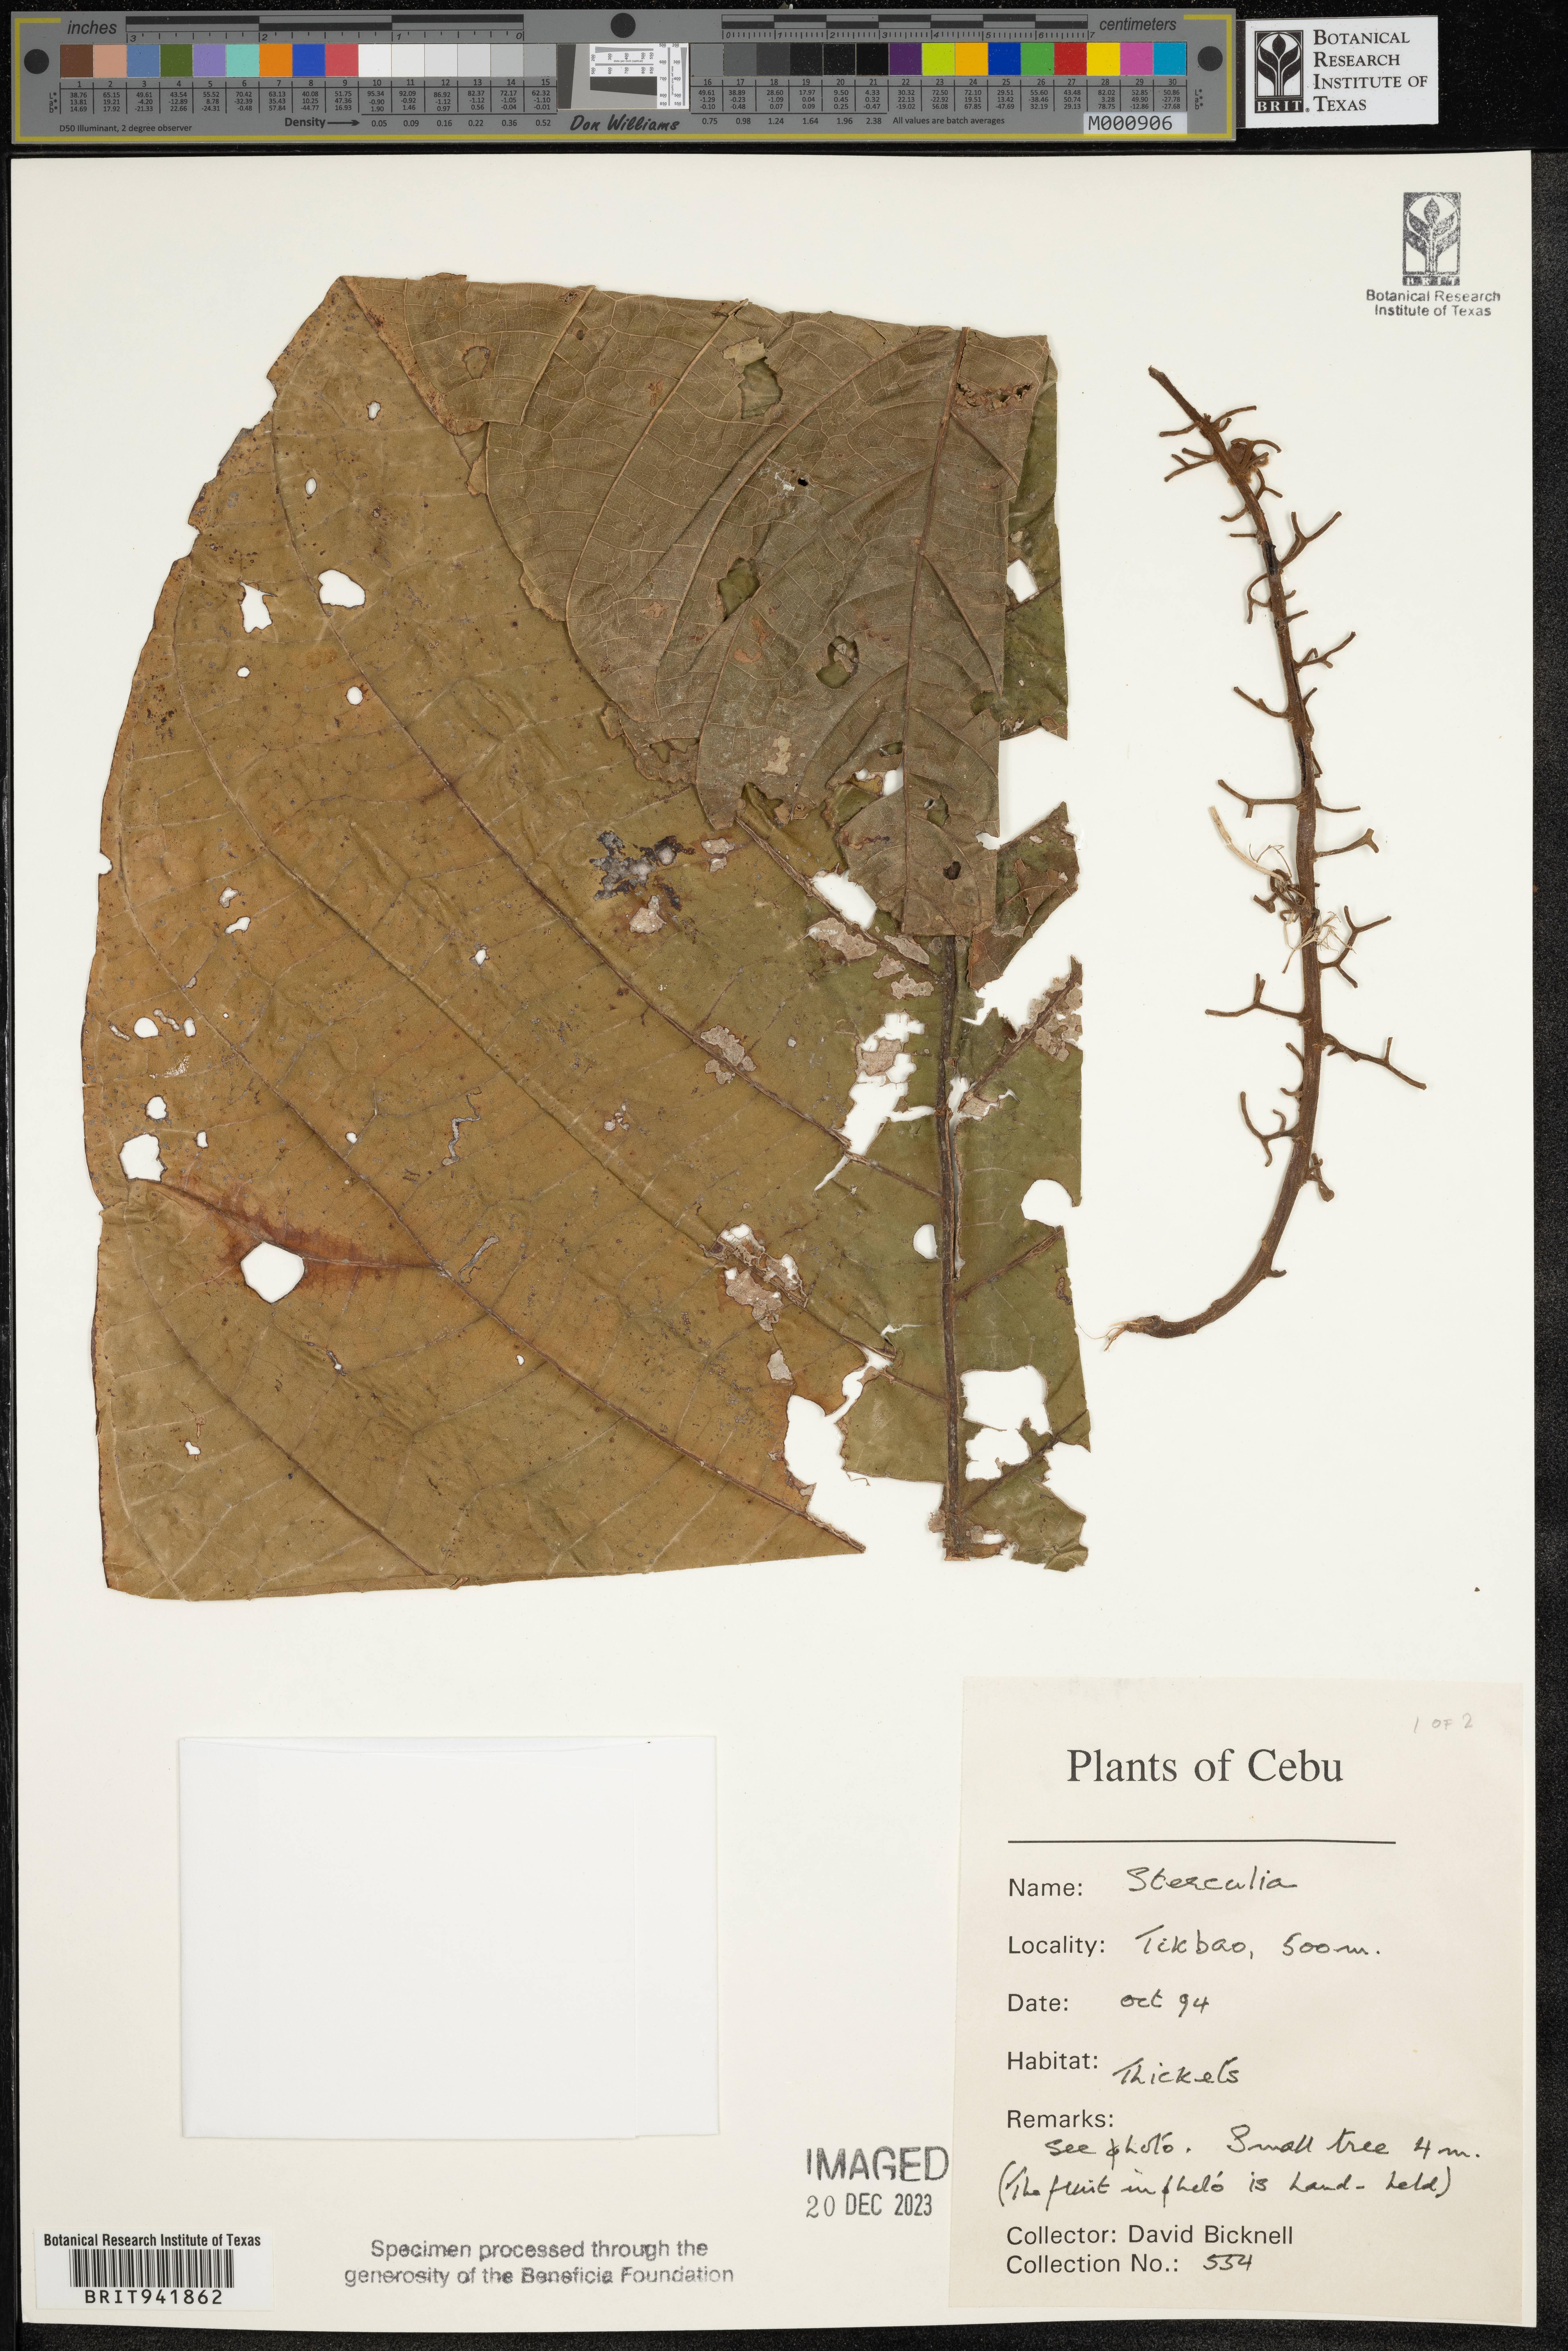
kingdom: Plantae
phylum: Tracheophyta
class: Magnoliopsida
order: Malvales
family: Malvaceae
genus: Sterculia
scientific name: Sterculia
